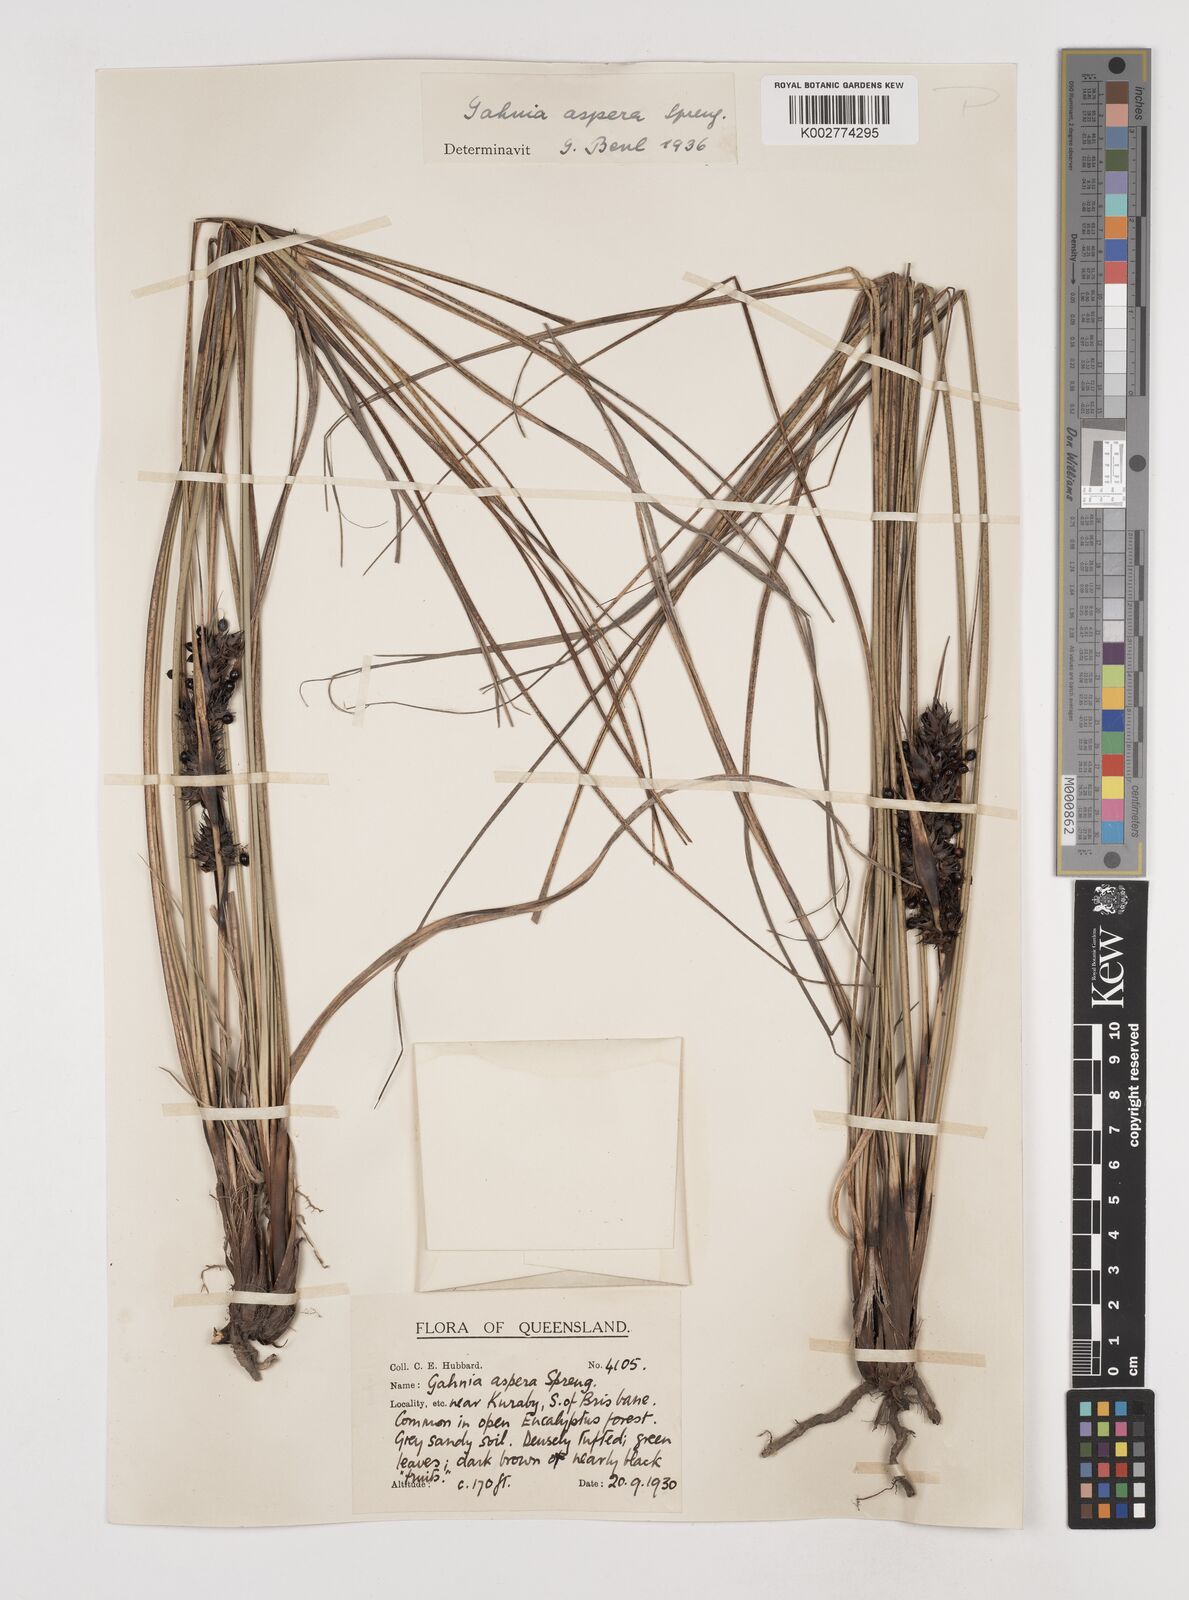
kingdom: Plantae
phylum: Tracheophyta
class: Liliopsida
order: Poales
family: Cyperaceae
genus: Gahnia
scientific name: Gahnia aspera
